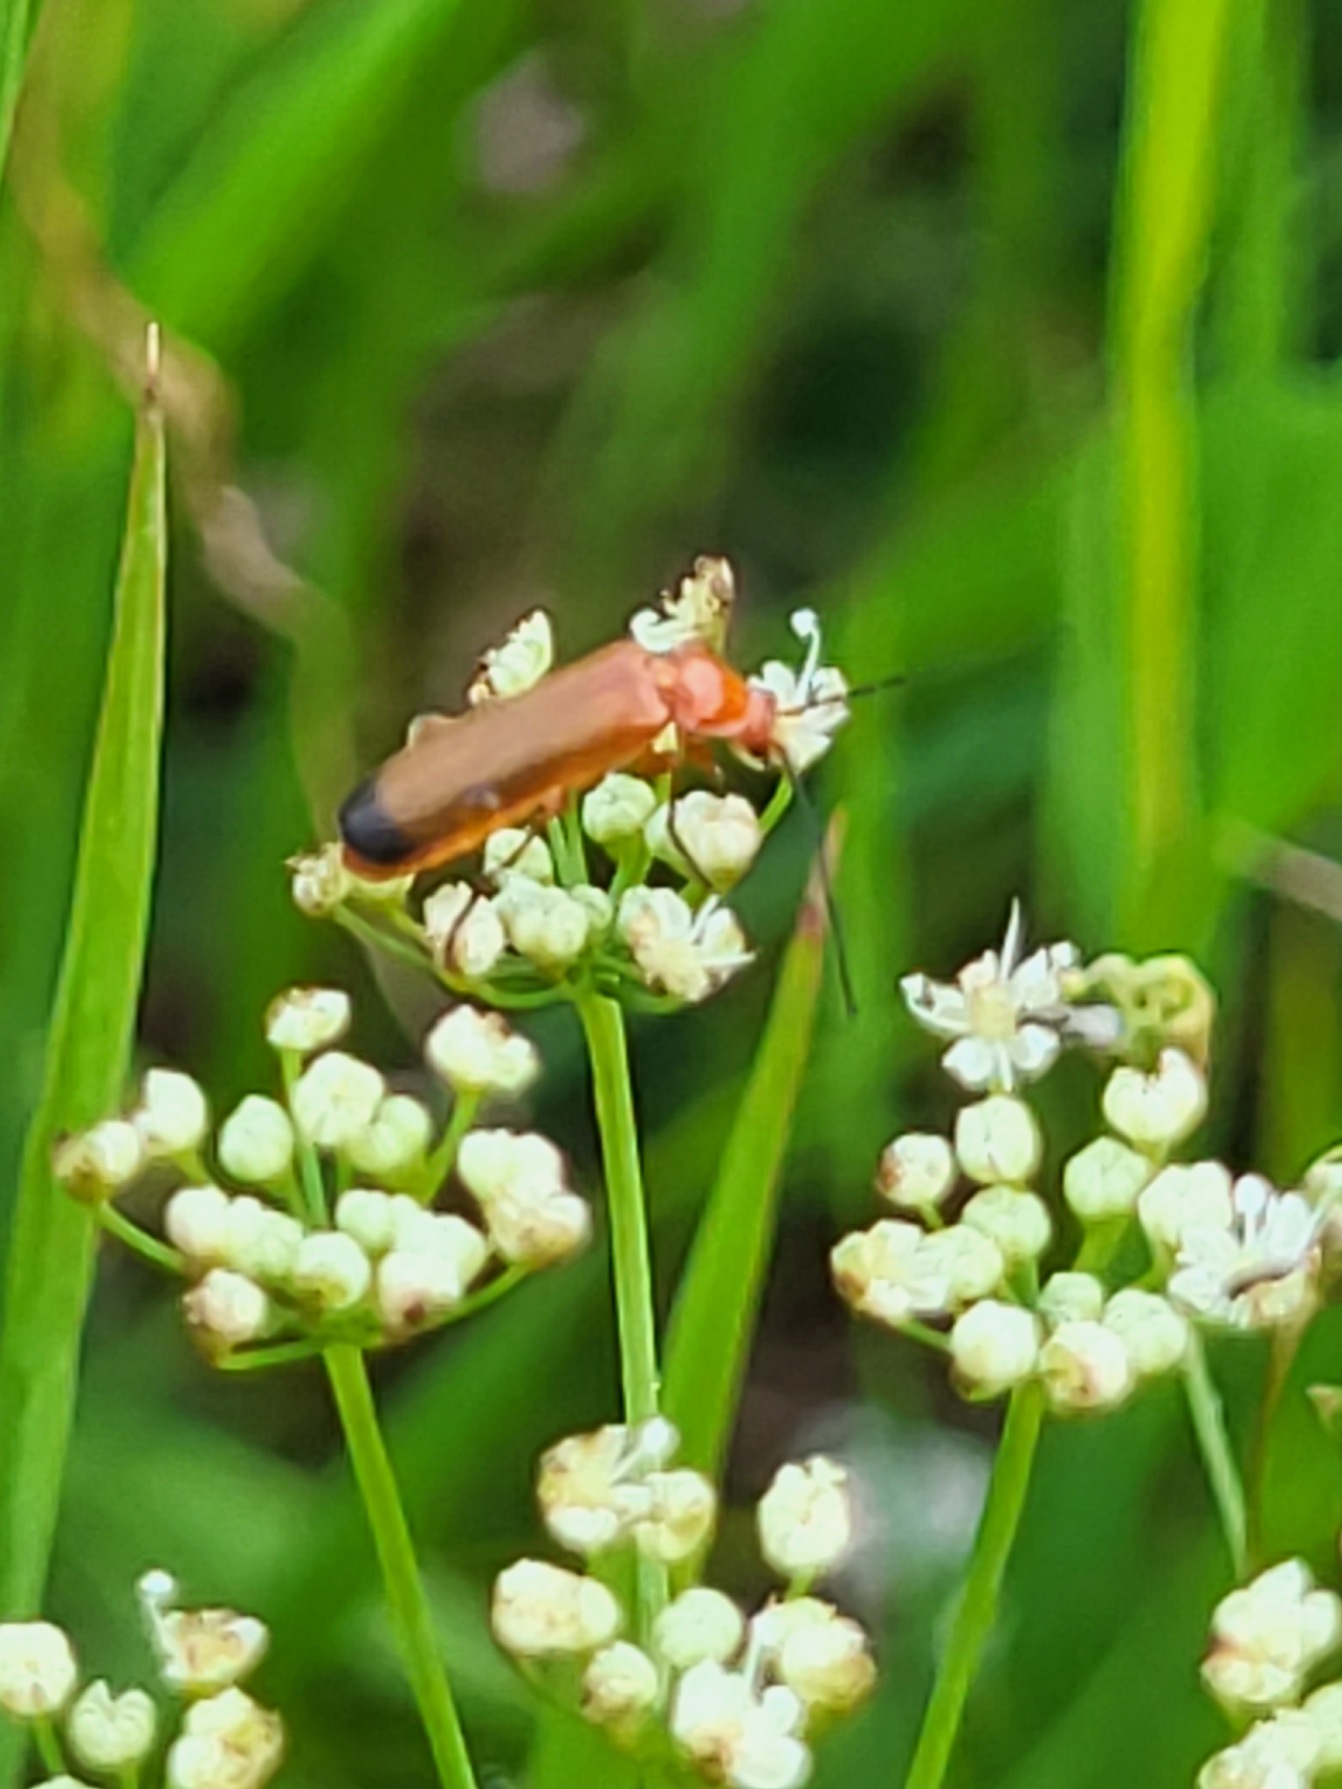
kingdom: Animalia
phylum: Arthropoda
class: Insecta
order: Coleoptera
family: Cantharidae
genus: Rhagonycha
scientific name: Rhagonycha fulva
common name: Præstebille
